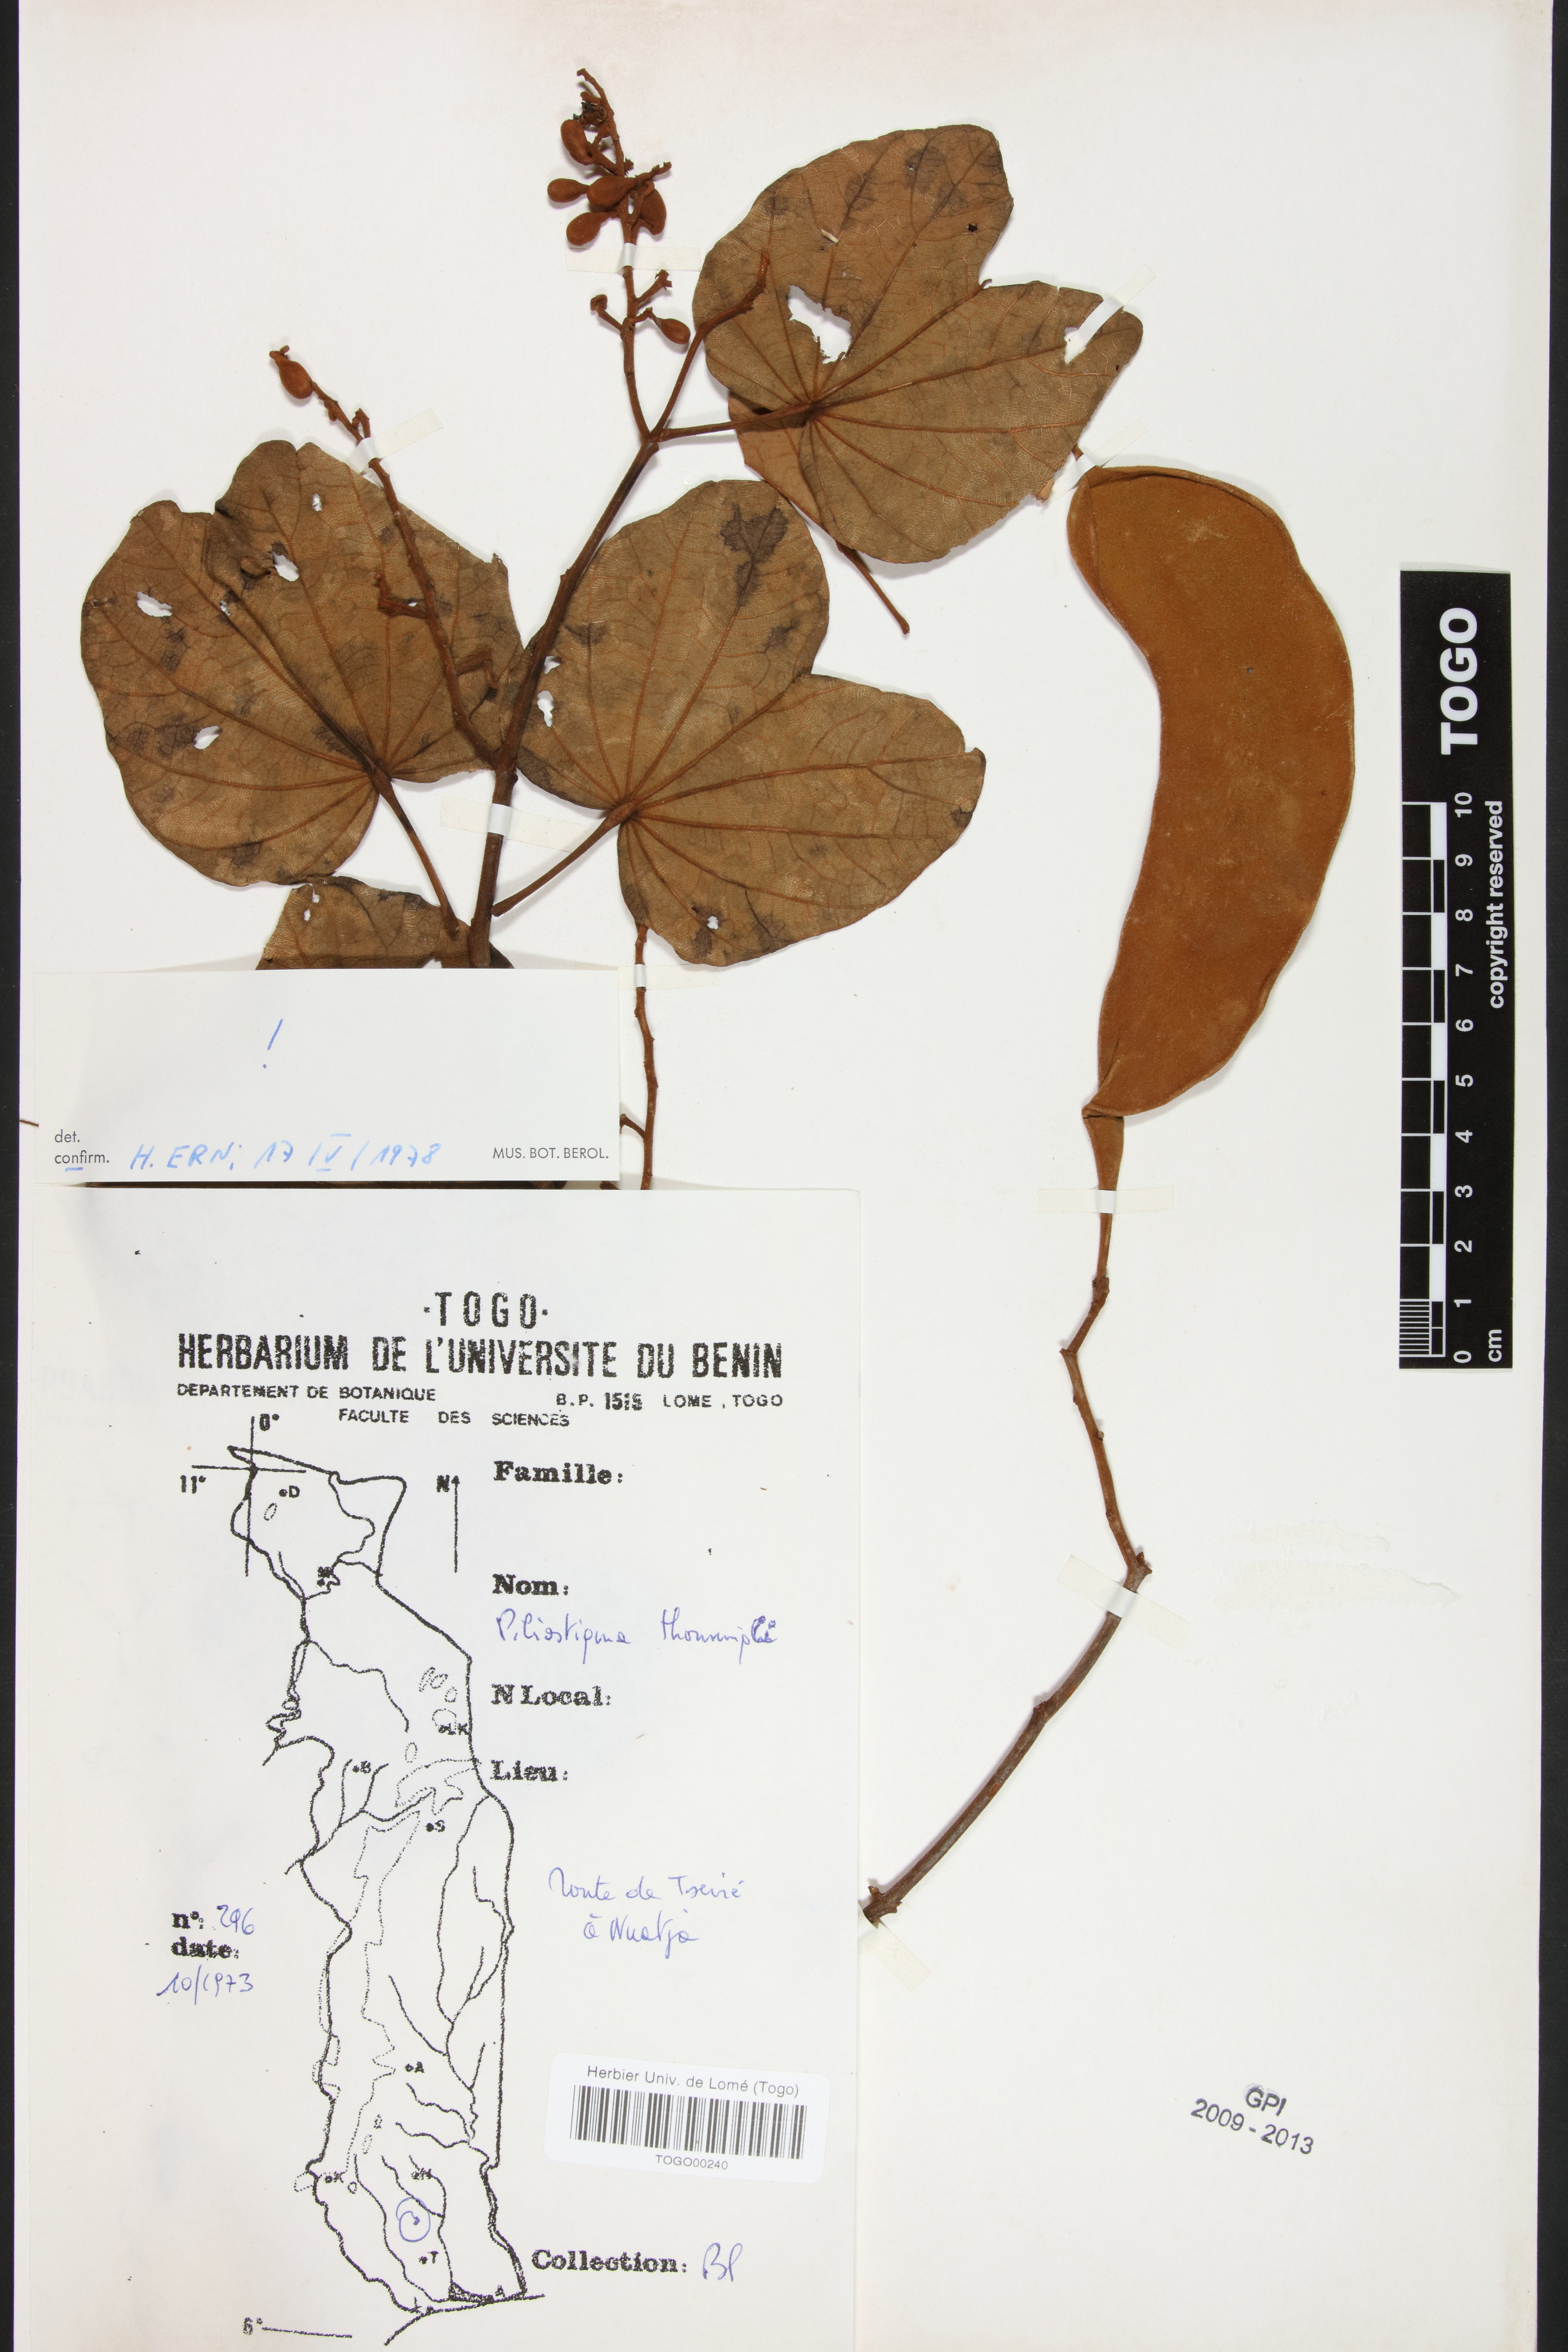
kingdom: Plantae
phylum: Tracheophyta
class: Magnoliopsida
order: Fabales
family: Fabaceae
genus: Piliostigma
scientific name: Piliostigma thonningii
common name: Kao
